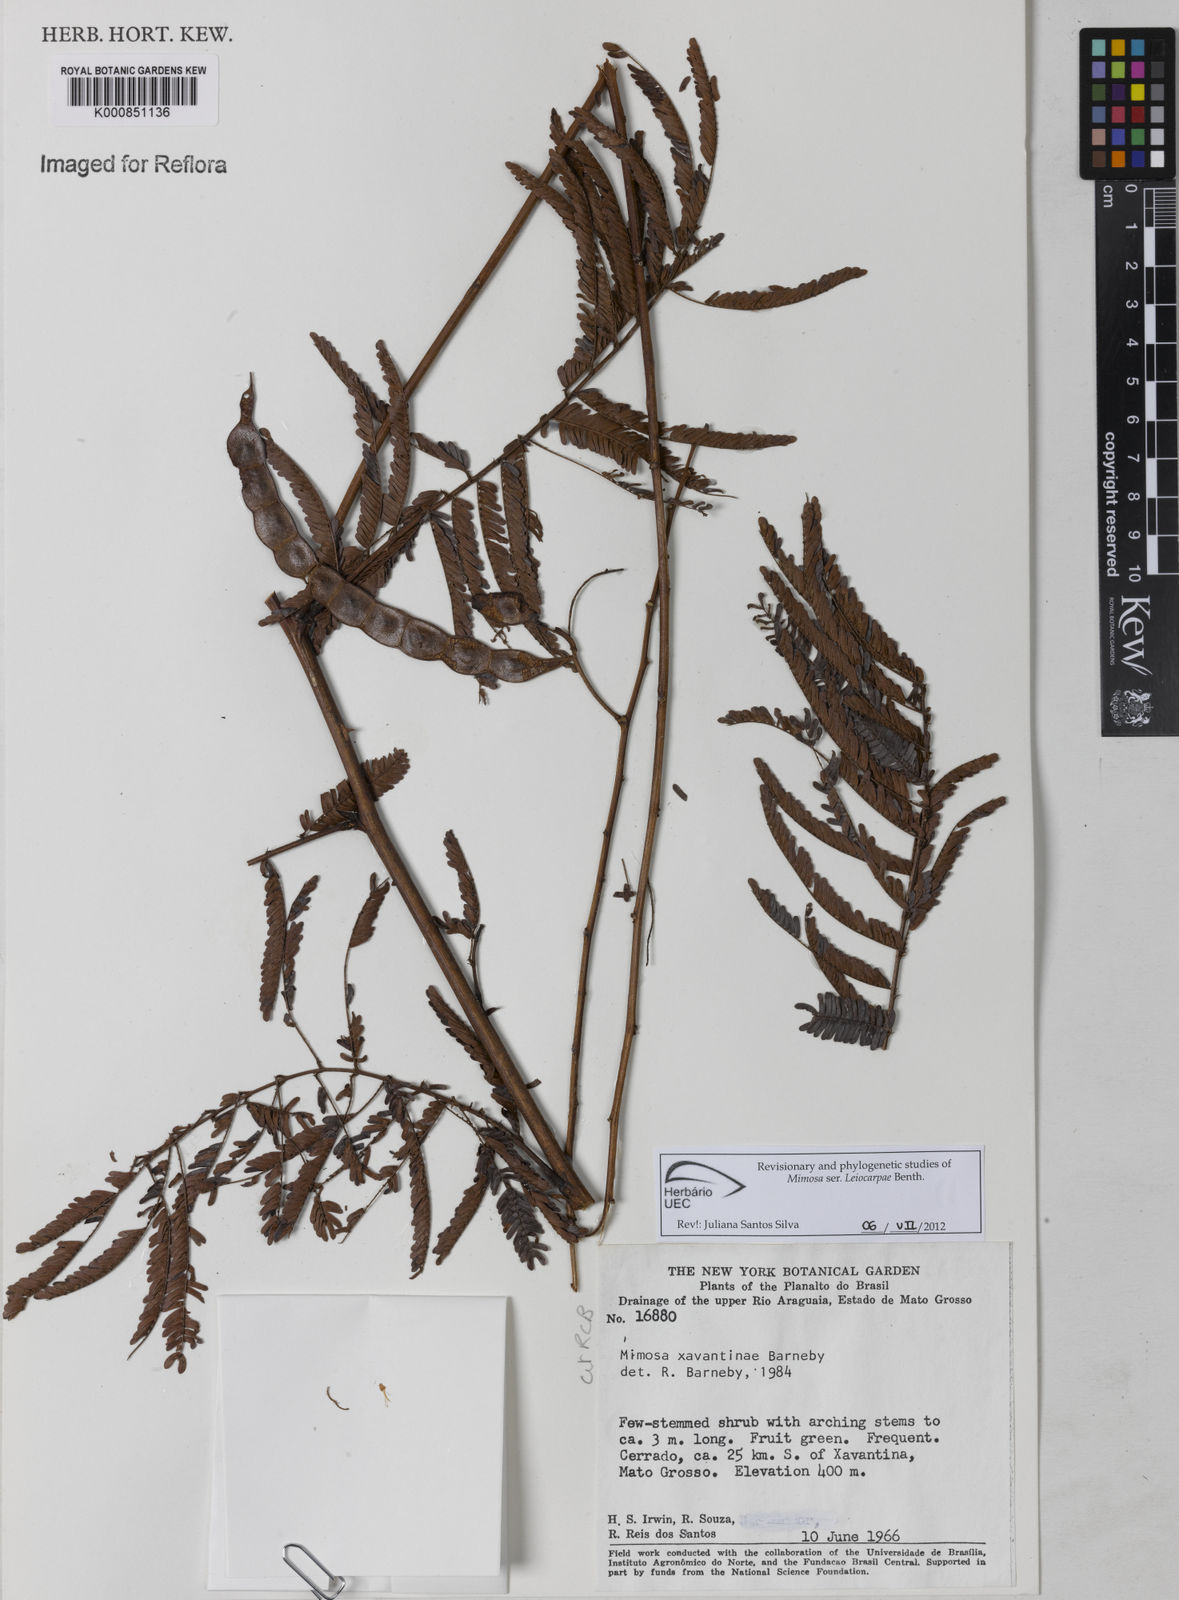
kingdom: Plantae
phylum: Tracheophyta
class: Magnoliopsida
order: Fabales
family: Fabaceae
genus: Mimosa
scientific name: Mimosa apodocarpa
